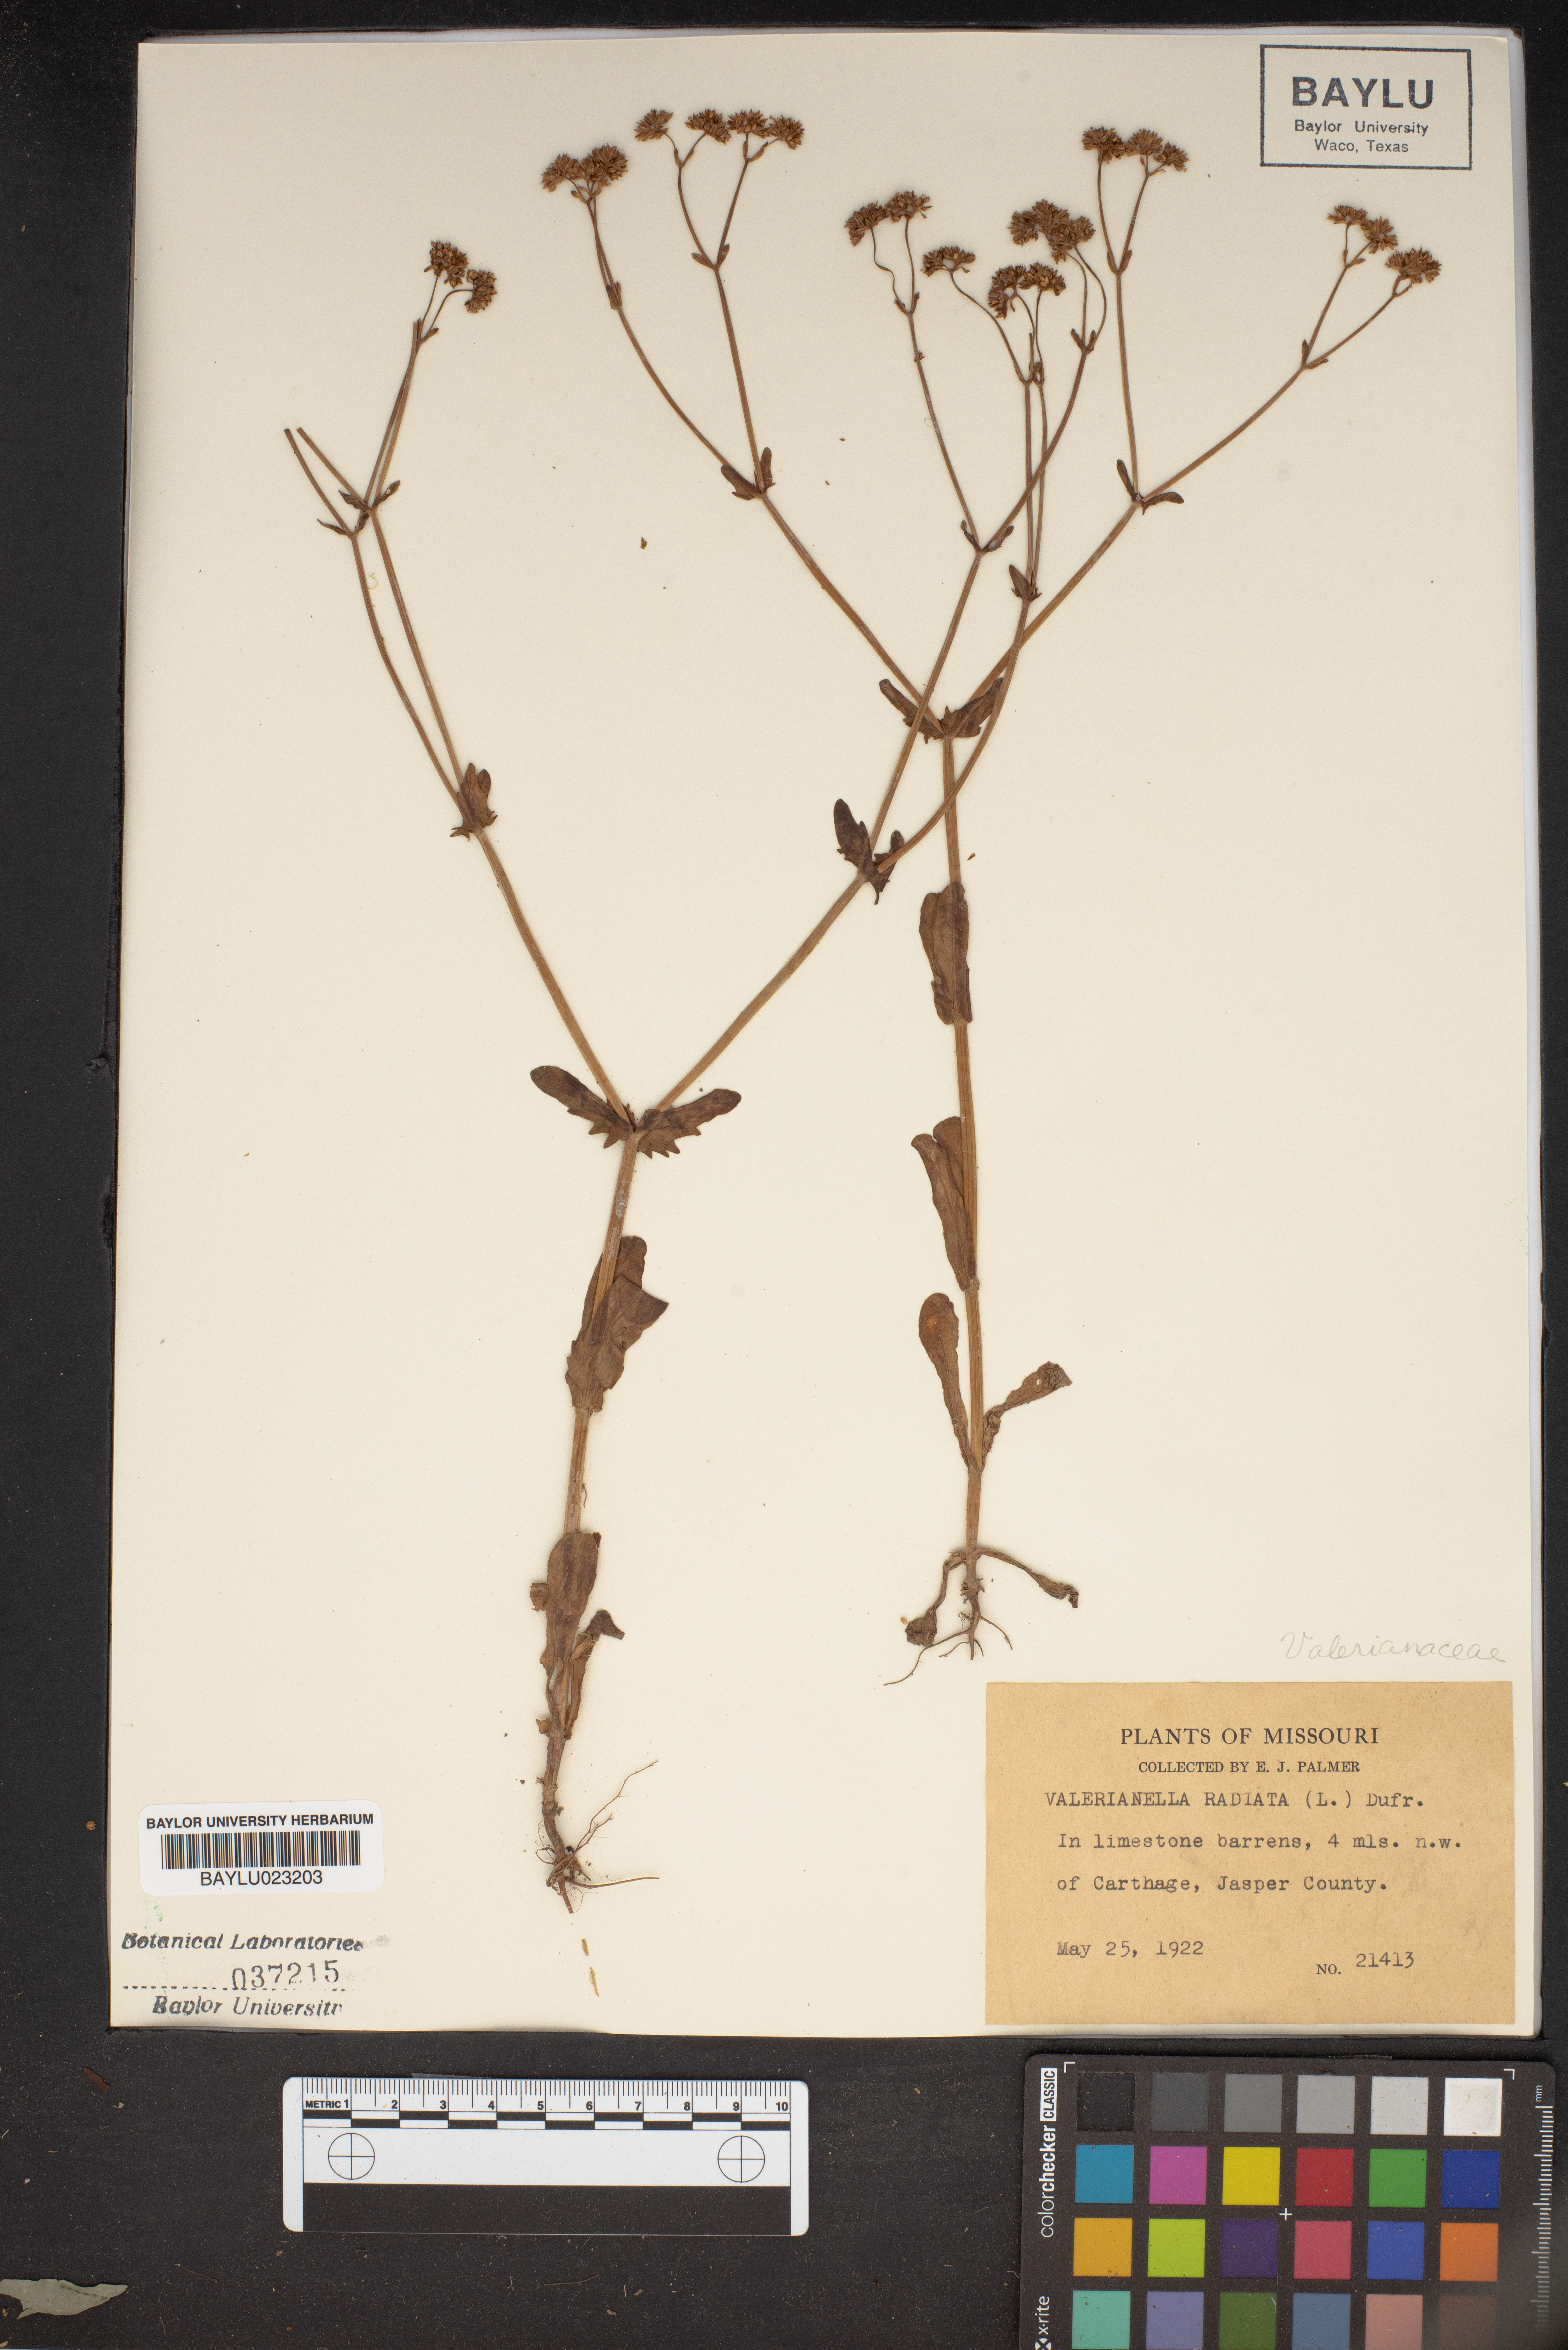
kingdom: Plantae
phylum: Tracheophyta
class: Magnoliopsida
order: Dipsacales
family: Caprifoliaceae
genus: Valerianella
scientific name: Valerianella radiata
